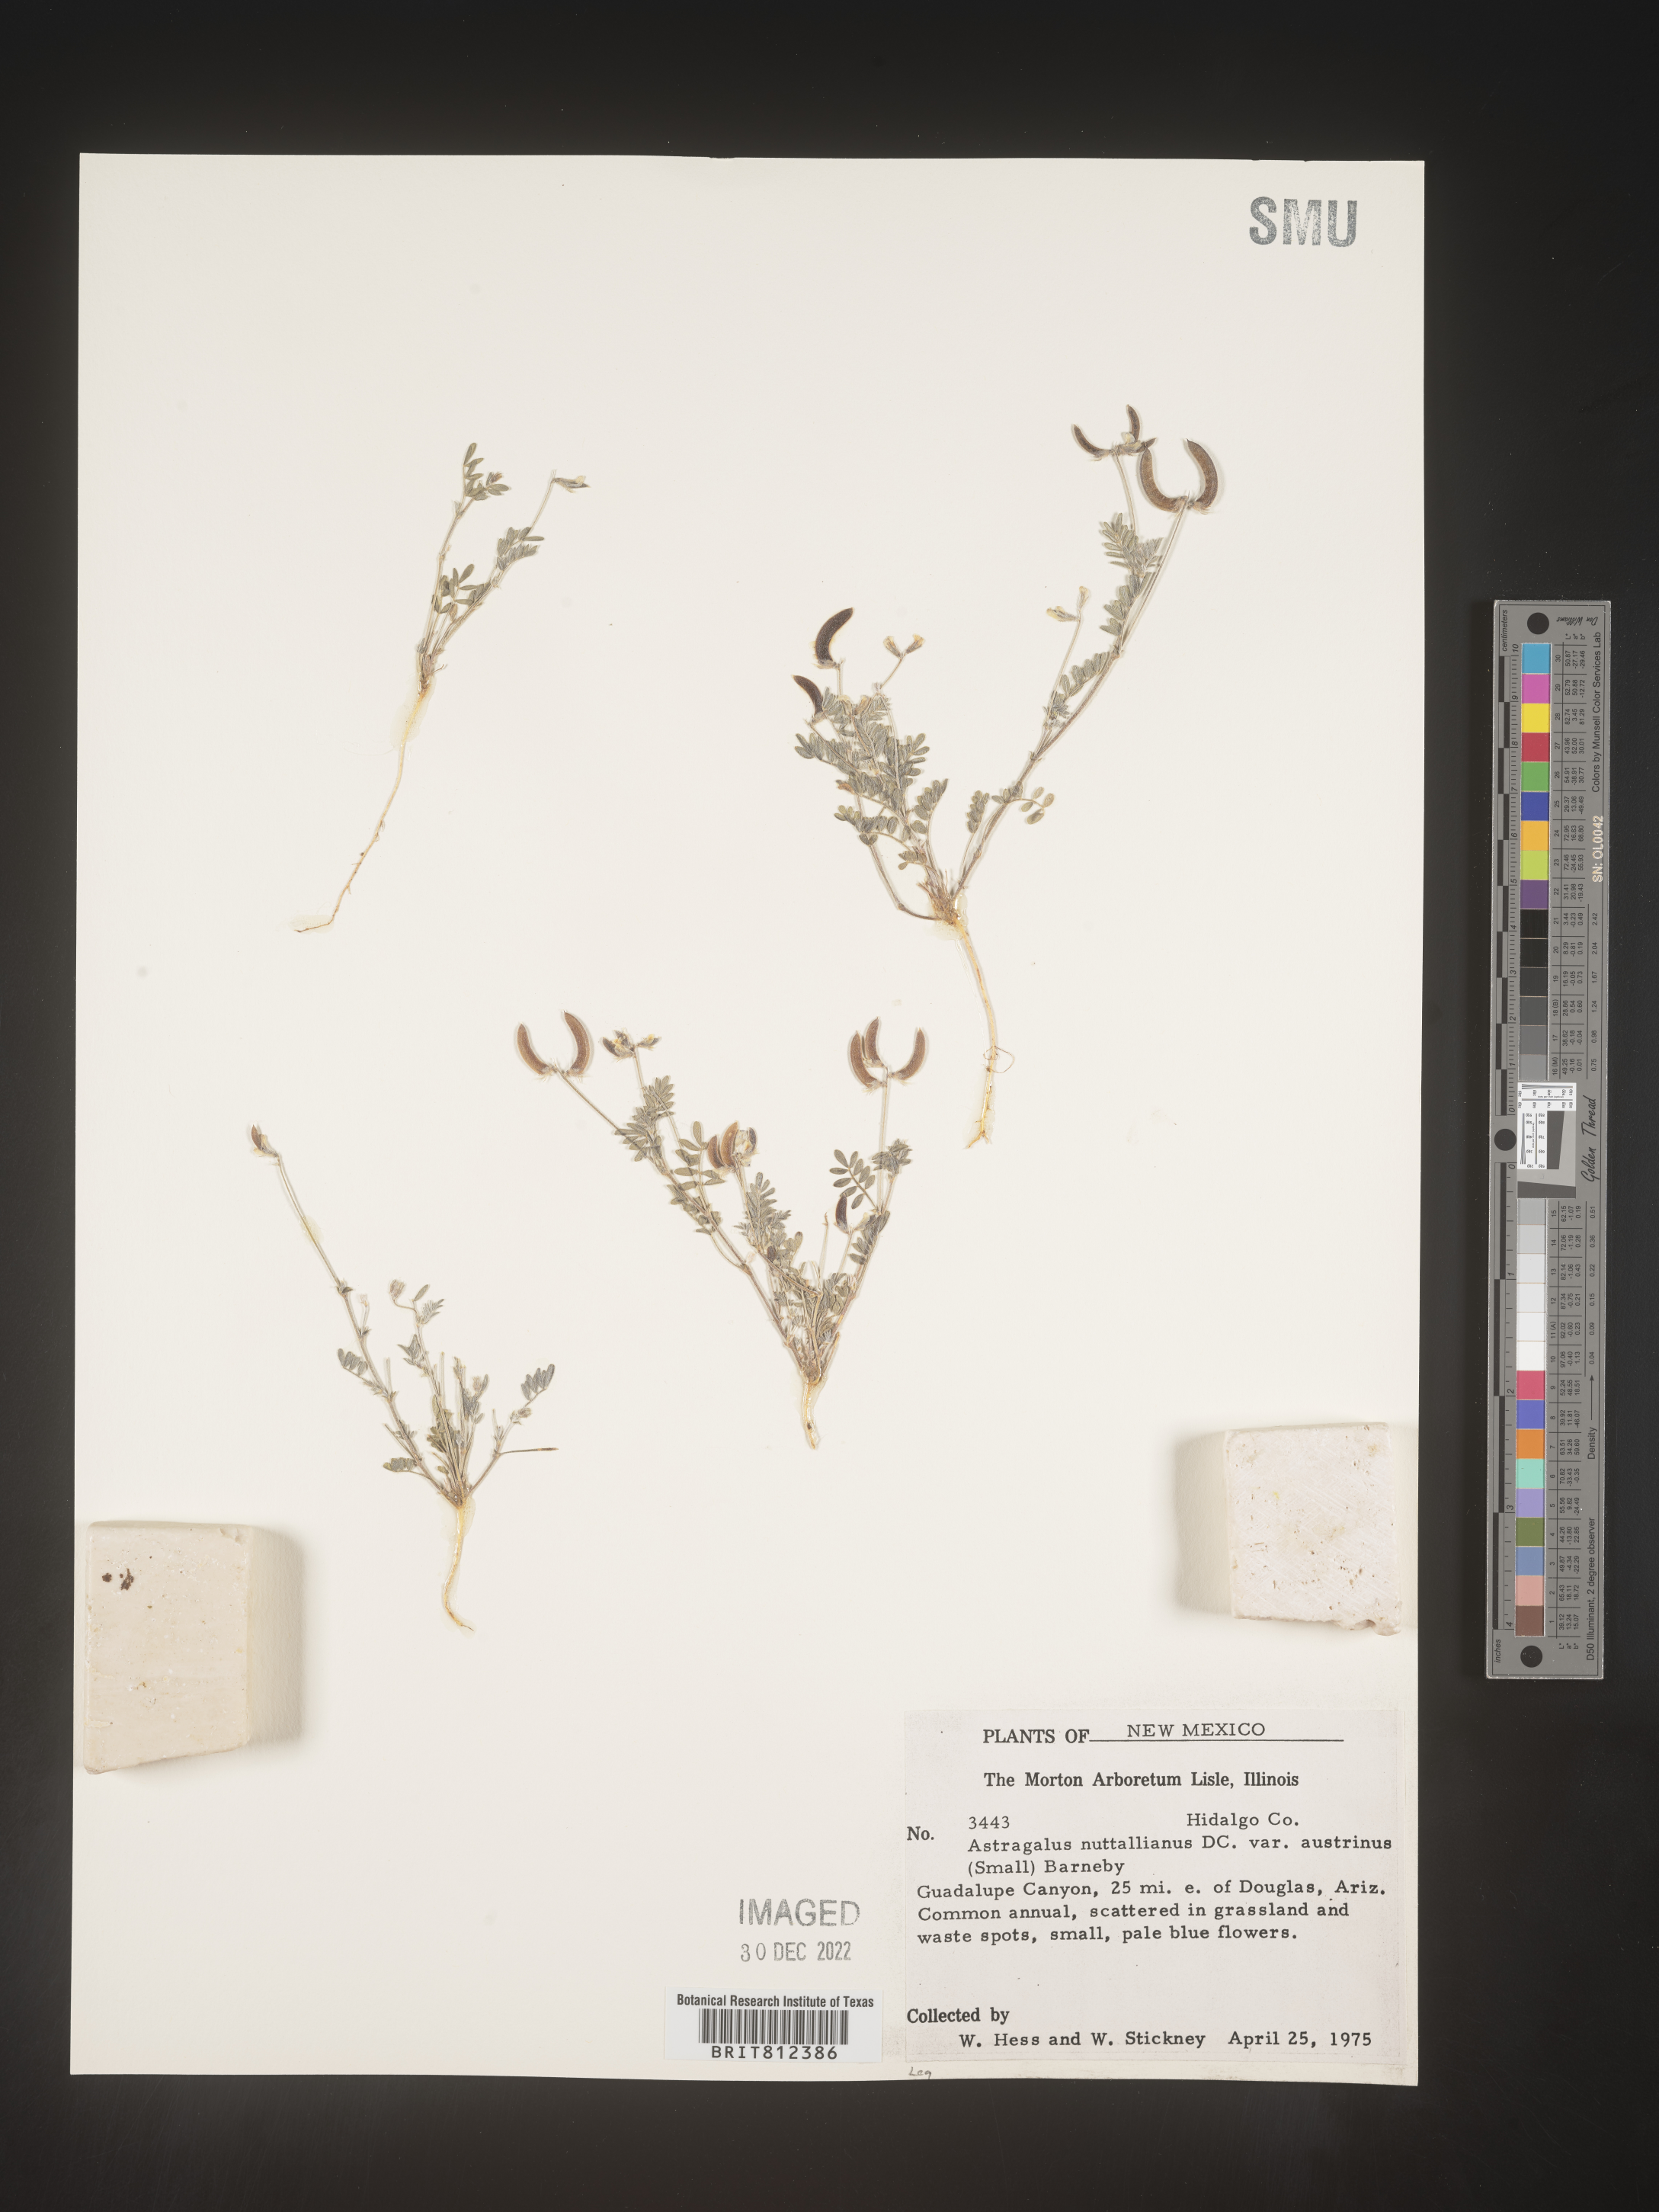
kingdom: Plantae
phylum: Tracheophyta
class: Magnoliopsida
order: Fabales
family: Fabaceae
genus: Astragalus
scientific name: Astragalus nuttallianus
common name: Smallflowered milkvetch
